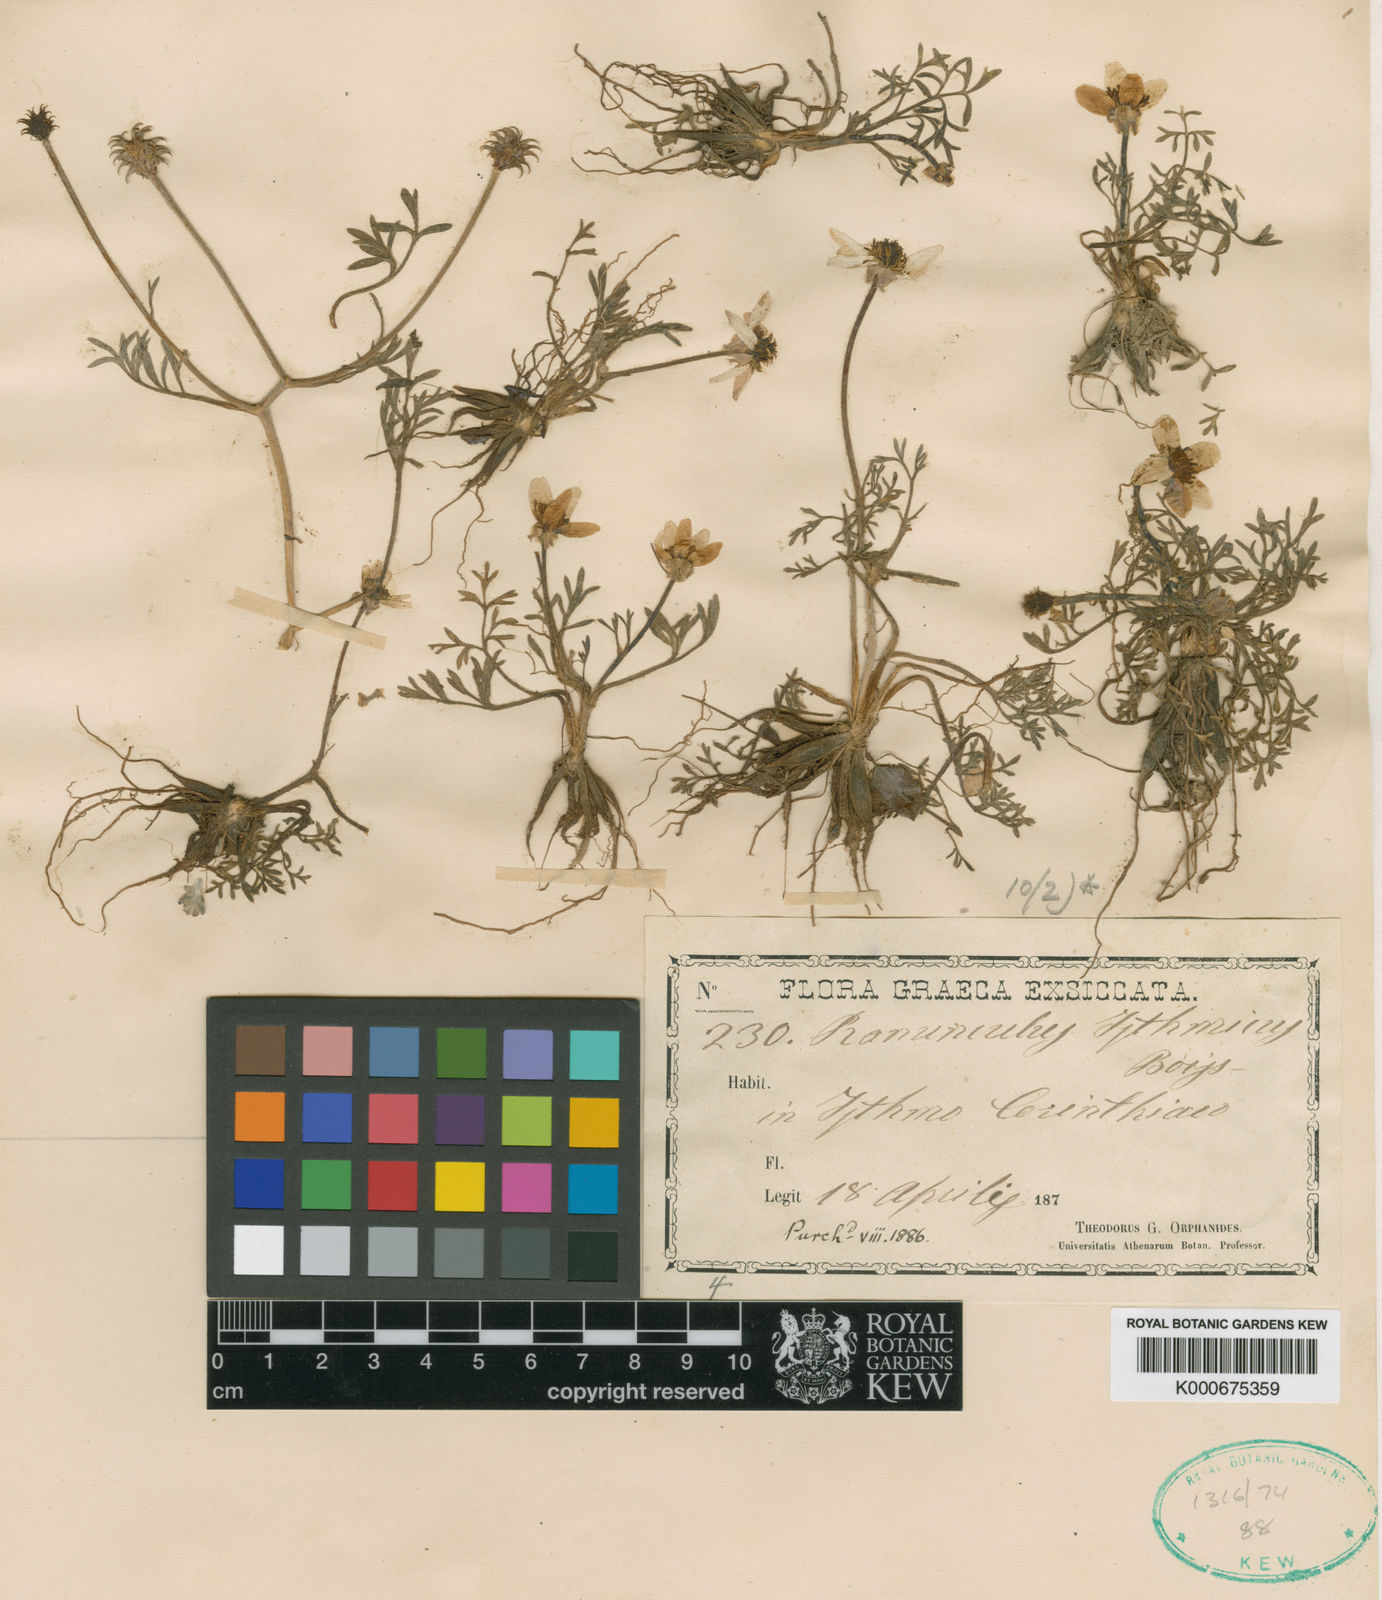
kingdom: Plantae
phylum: Tracheophyta
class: Magnoliopsida
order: Ranunculales
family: Ranunculaceae
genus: Ranunculus
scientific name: Ranunculus isthmicus
